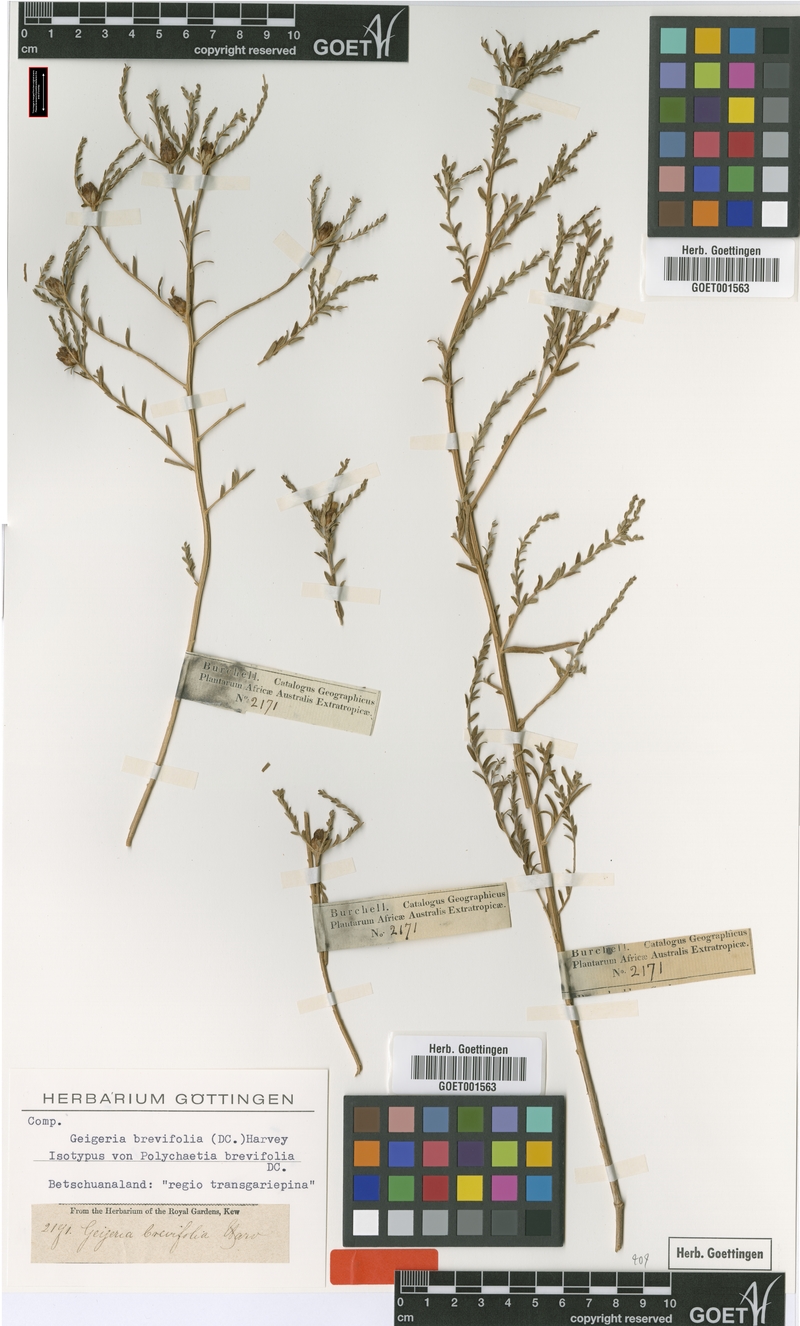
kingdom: Plantae
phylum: Tracheophyta
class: Magnoliopsida
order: Asterales
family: Asteraceae
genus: Geigeria
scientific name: Geigeria brevifolia
